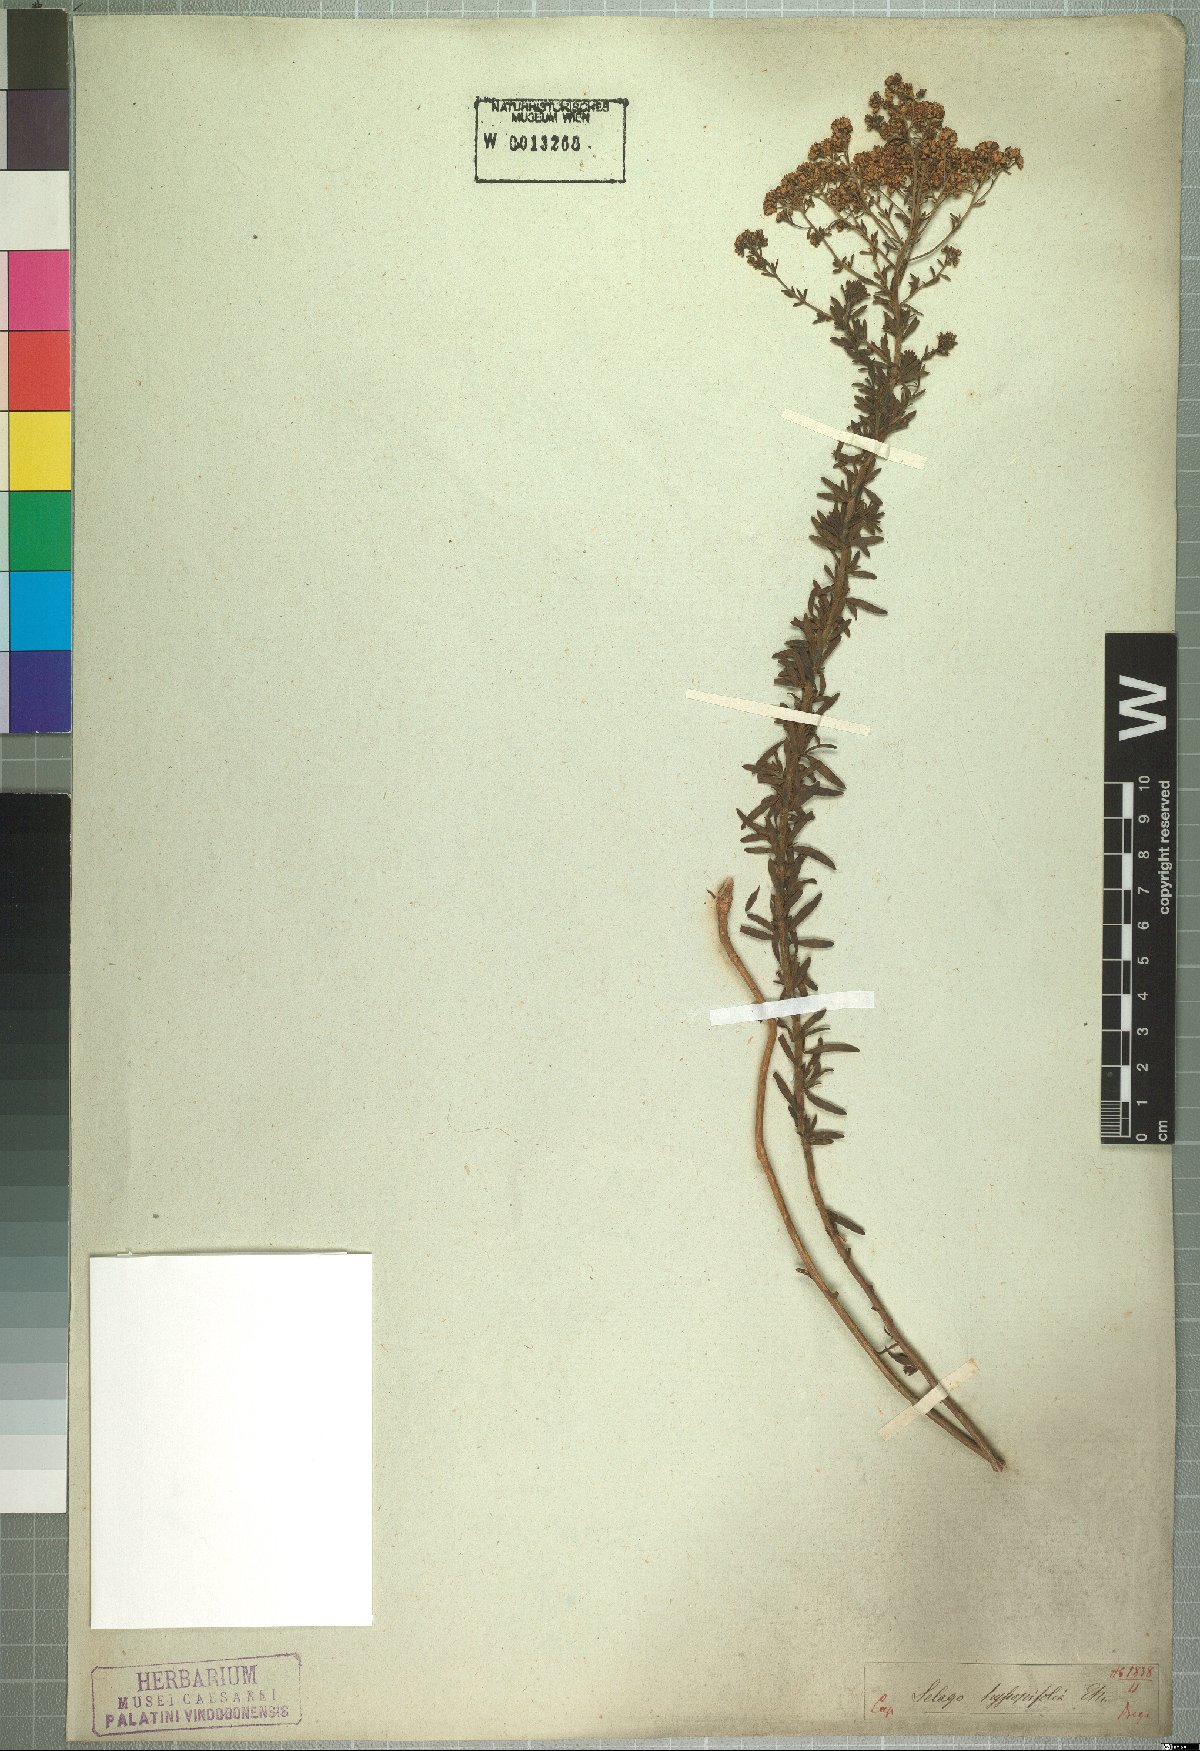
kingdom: Plantae
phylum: Tracheophyta
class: Magnoliopsida
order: Lamiales
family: Scrophulariaceae
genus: Selago
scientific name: Selago hyssopifolia
